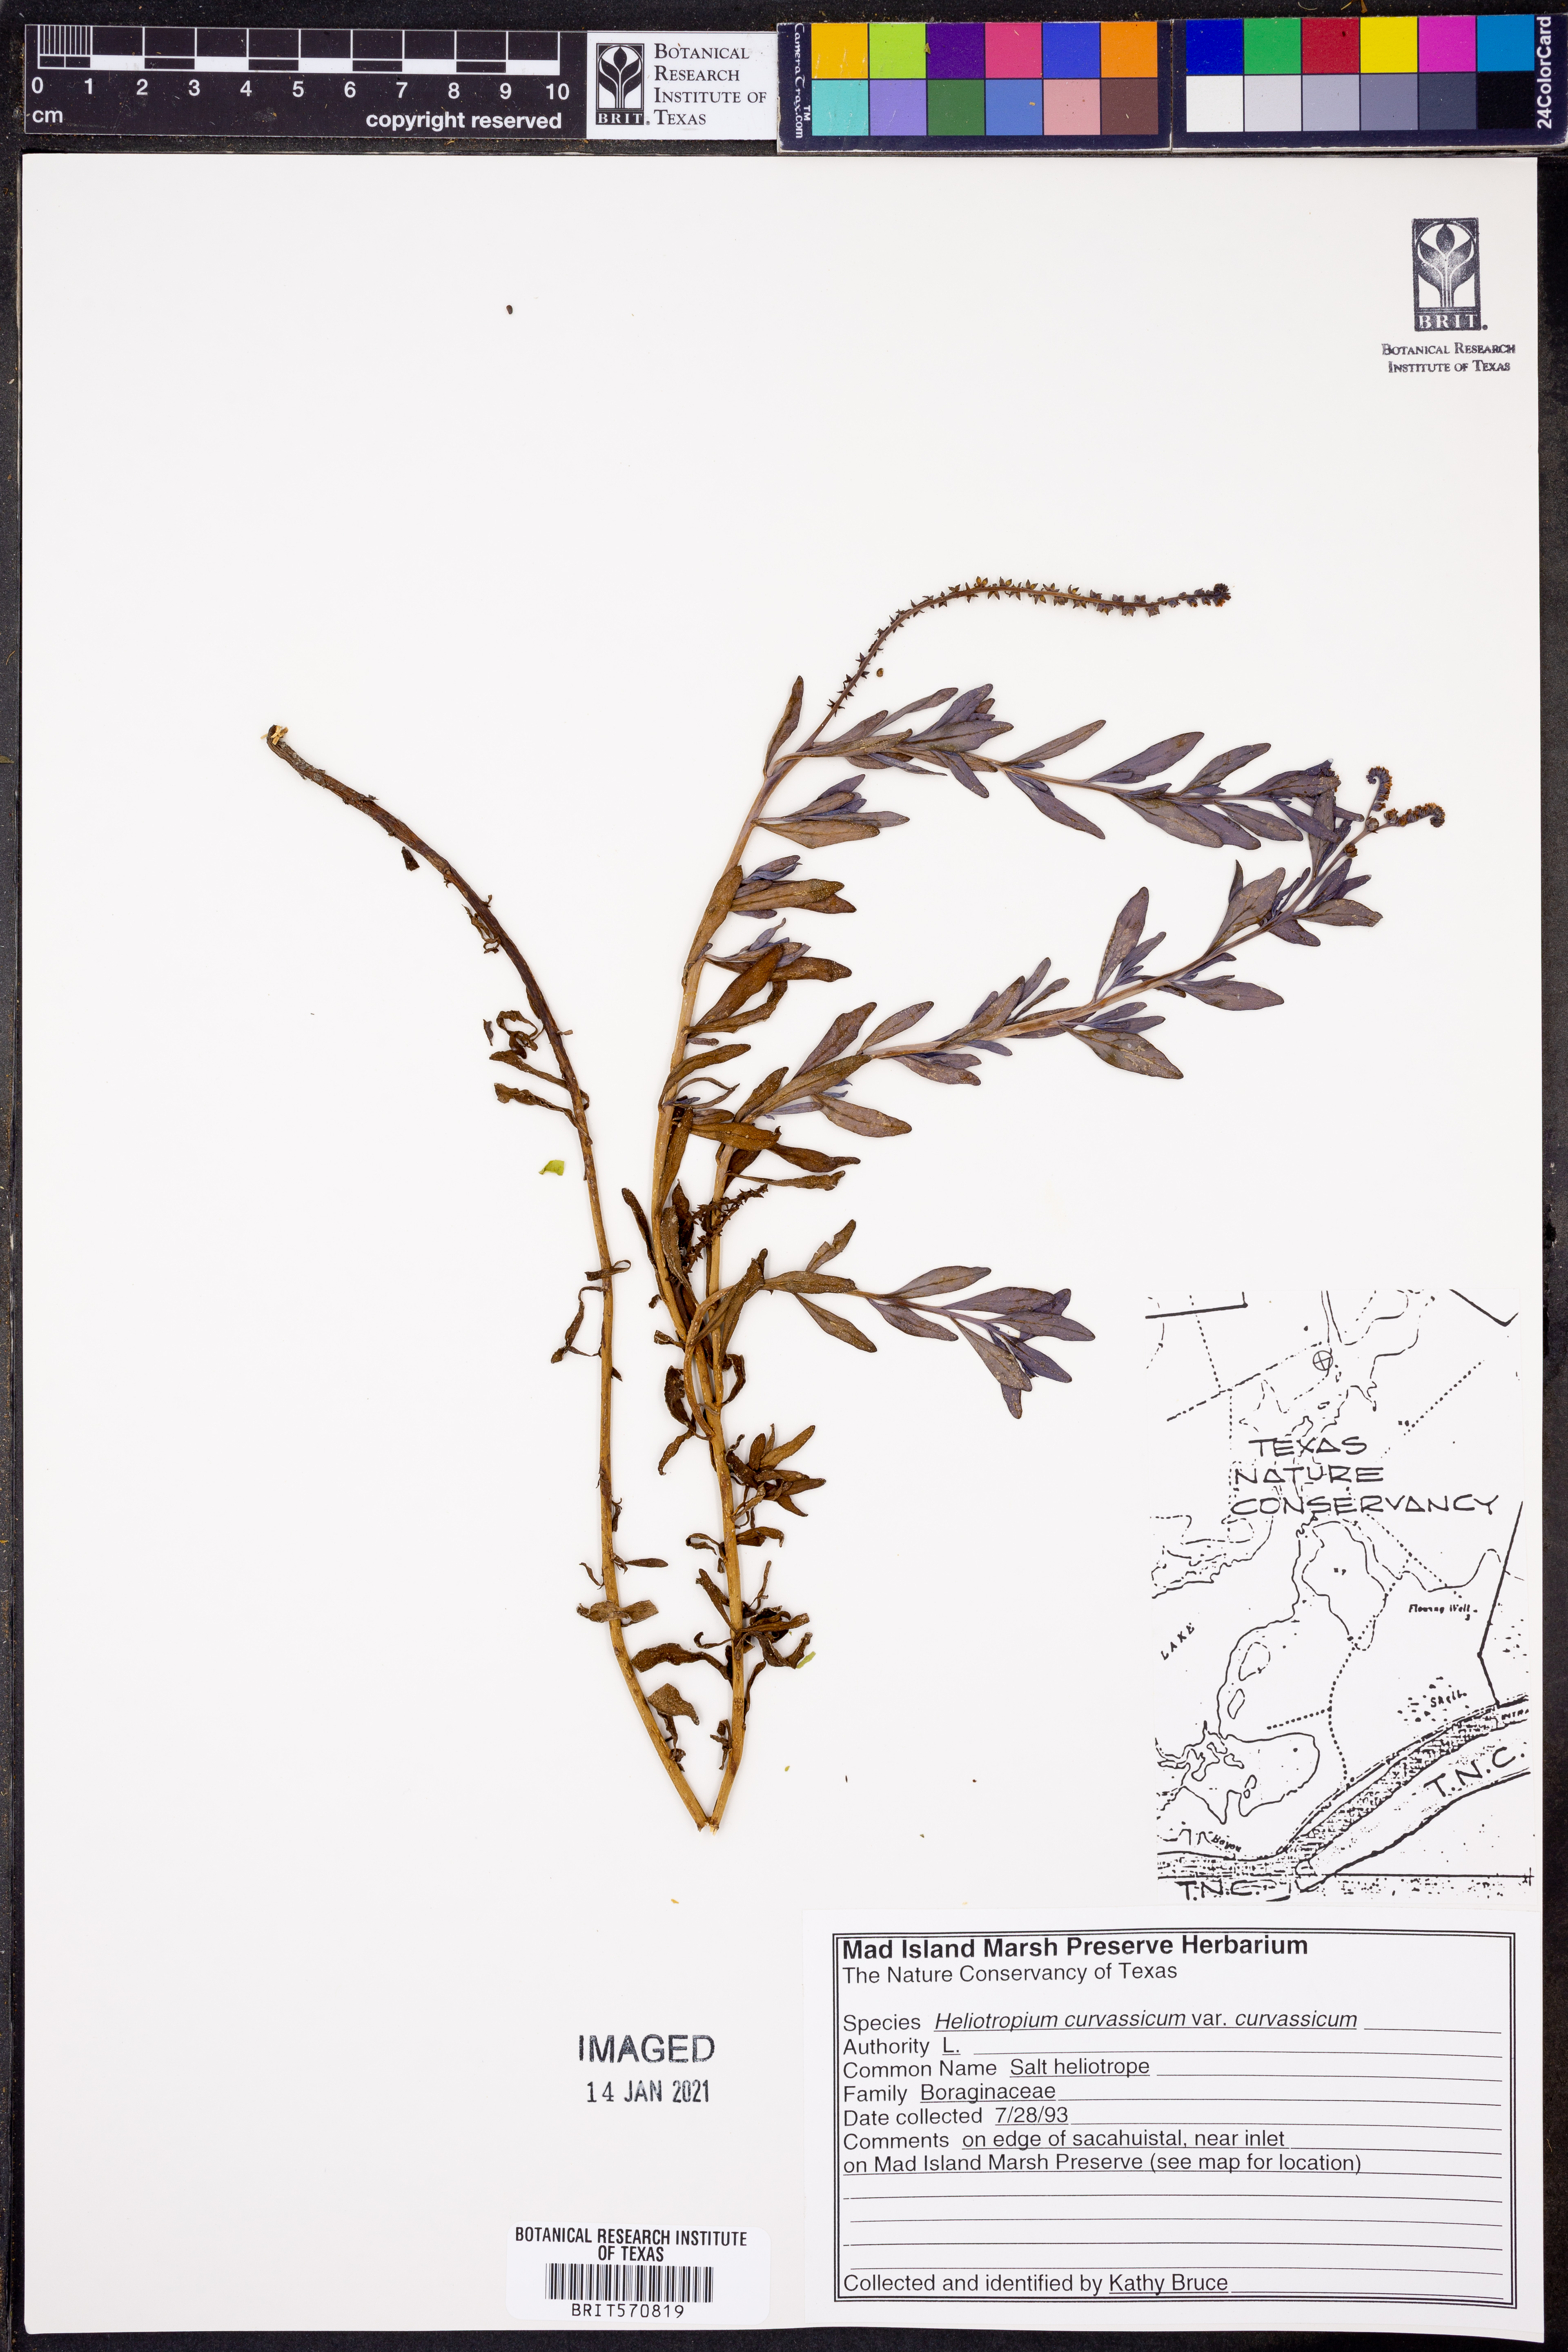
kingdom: Plantae
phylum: Tracheophyta
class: Magnoliopsida
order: Boraginales
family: Heliotropiaceae
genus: Heliotropium
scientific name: Heliotropium curassavicum
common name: Seaside heliotrope
